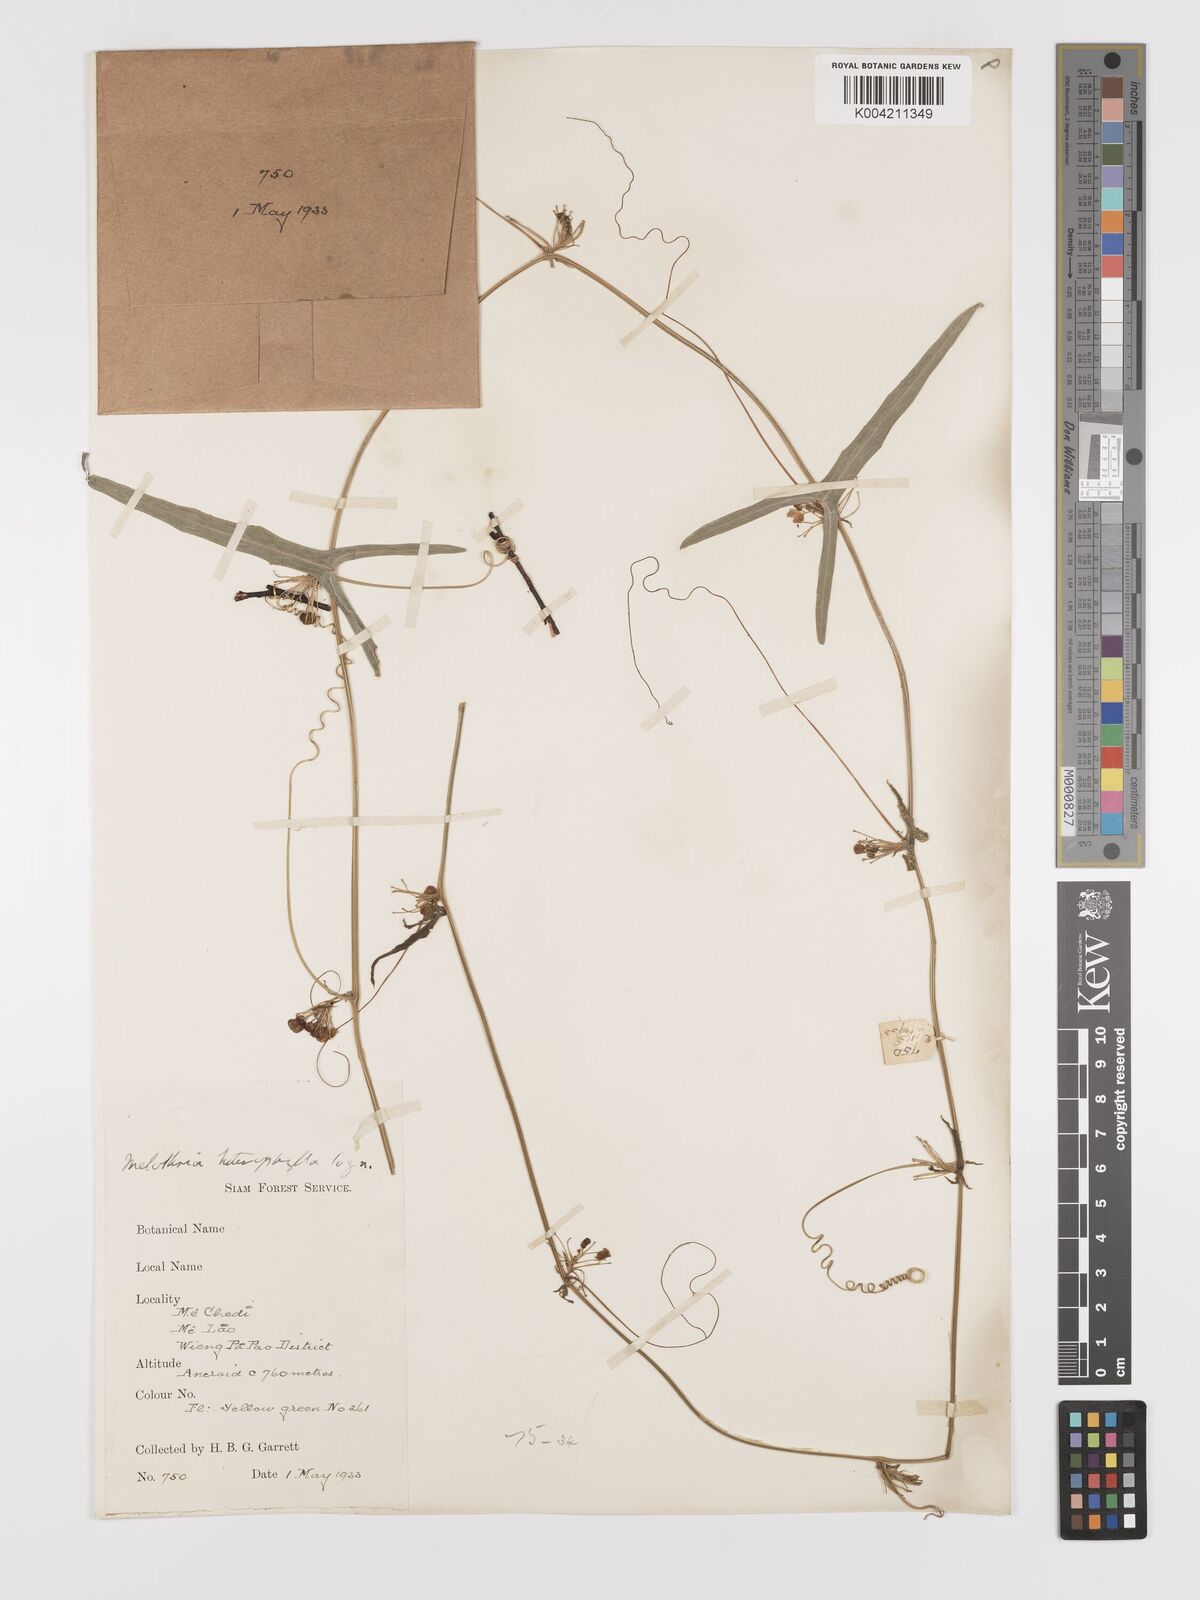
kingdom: Plantae
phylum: Tracheophyta
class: Magnoliopsida
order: Cucurbitales
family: Cucurbitaceae
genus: Solena
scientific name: Solena amplexicaulis
